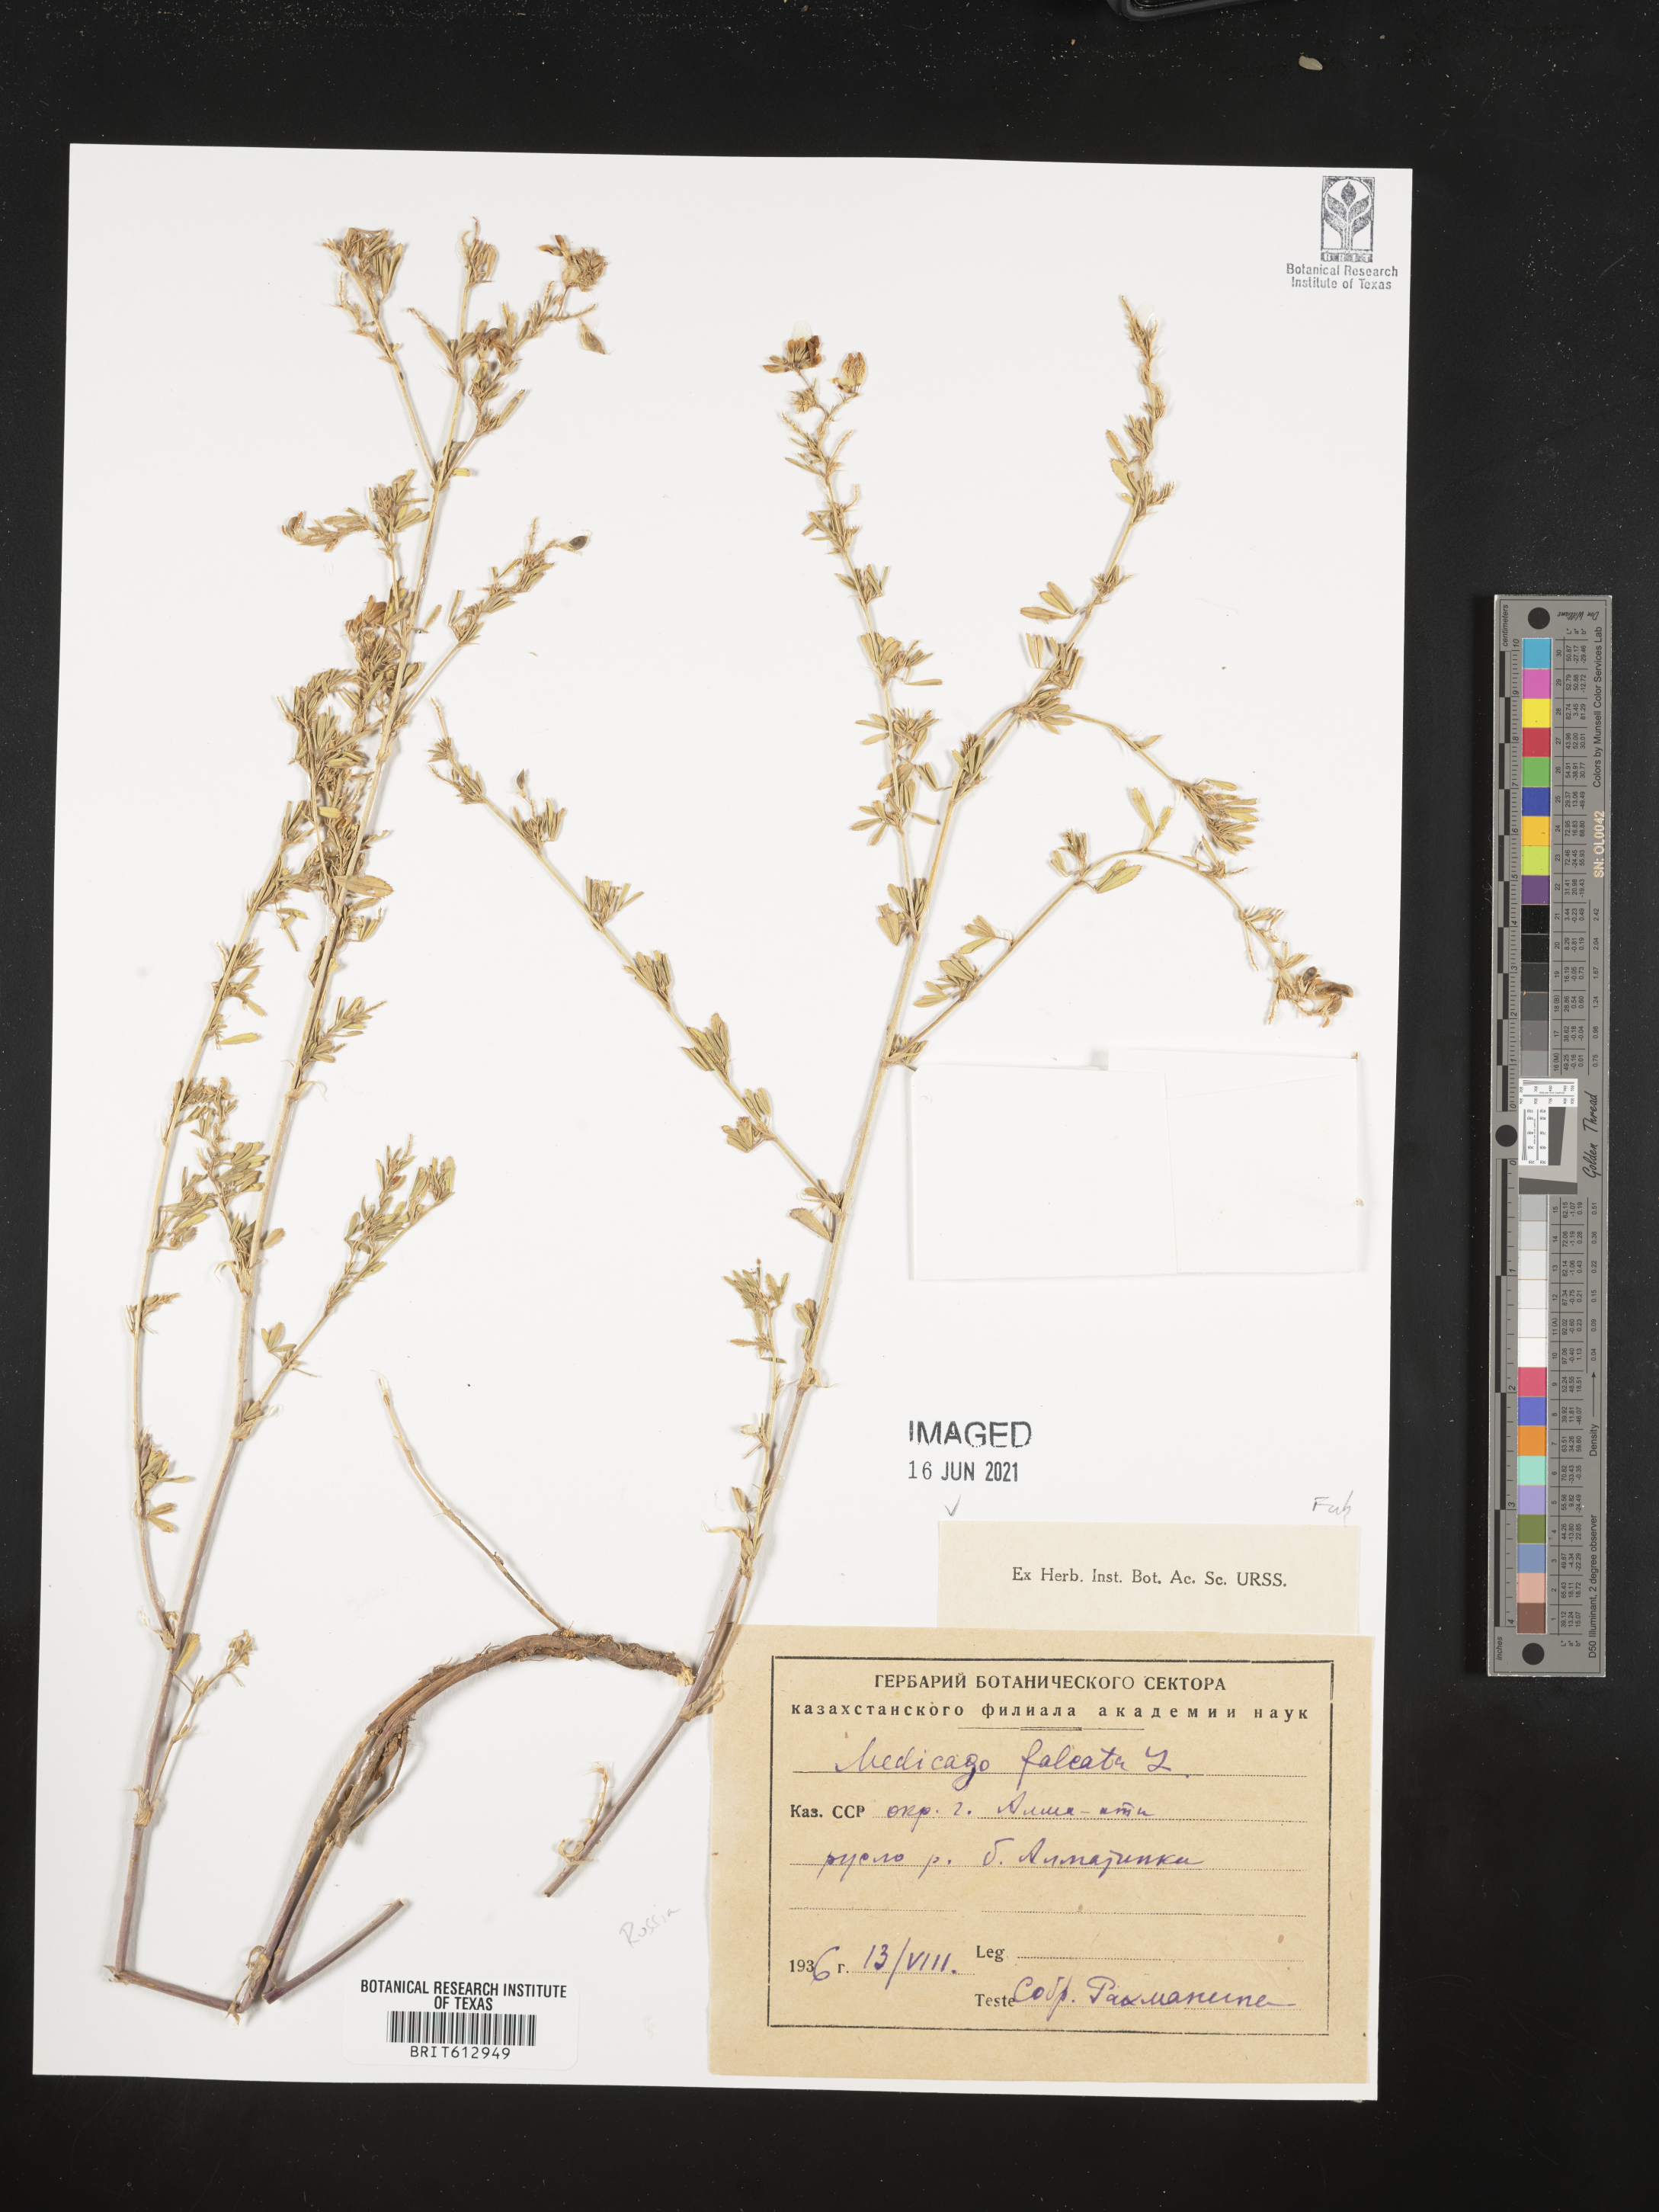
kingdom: Plantae
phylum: Tracheophyta
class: Magnoliopsida
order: Fabales
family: Fabaceae
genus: Medicago
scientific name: Medicago sativa
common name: Alfalfa
